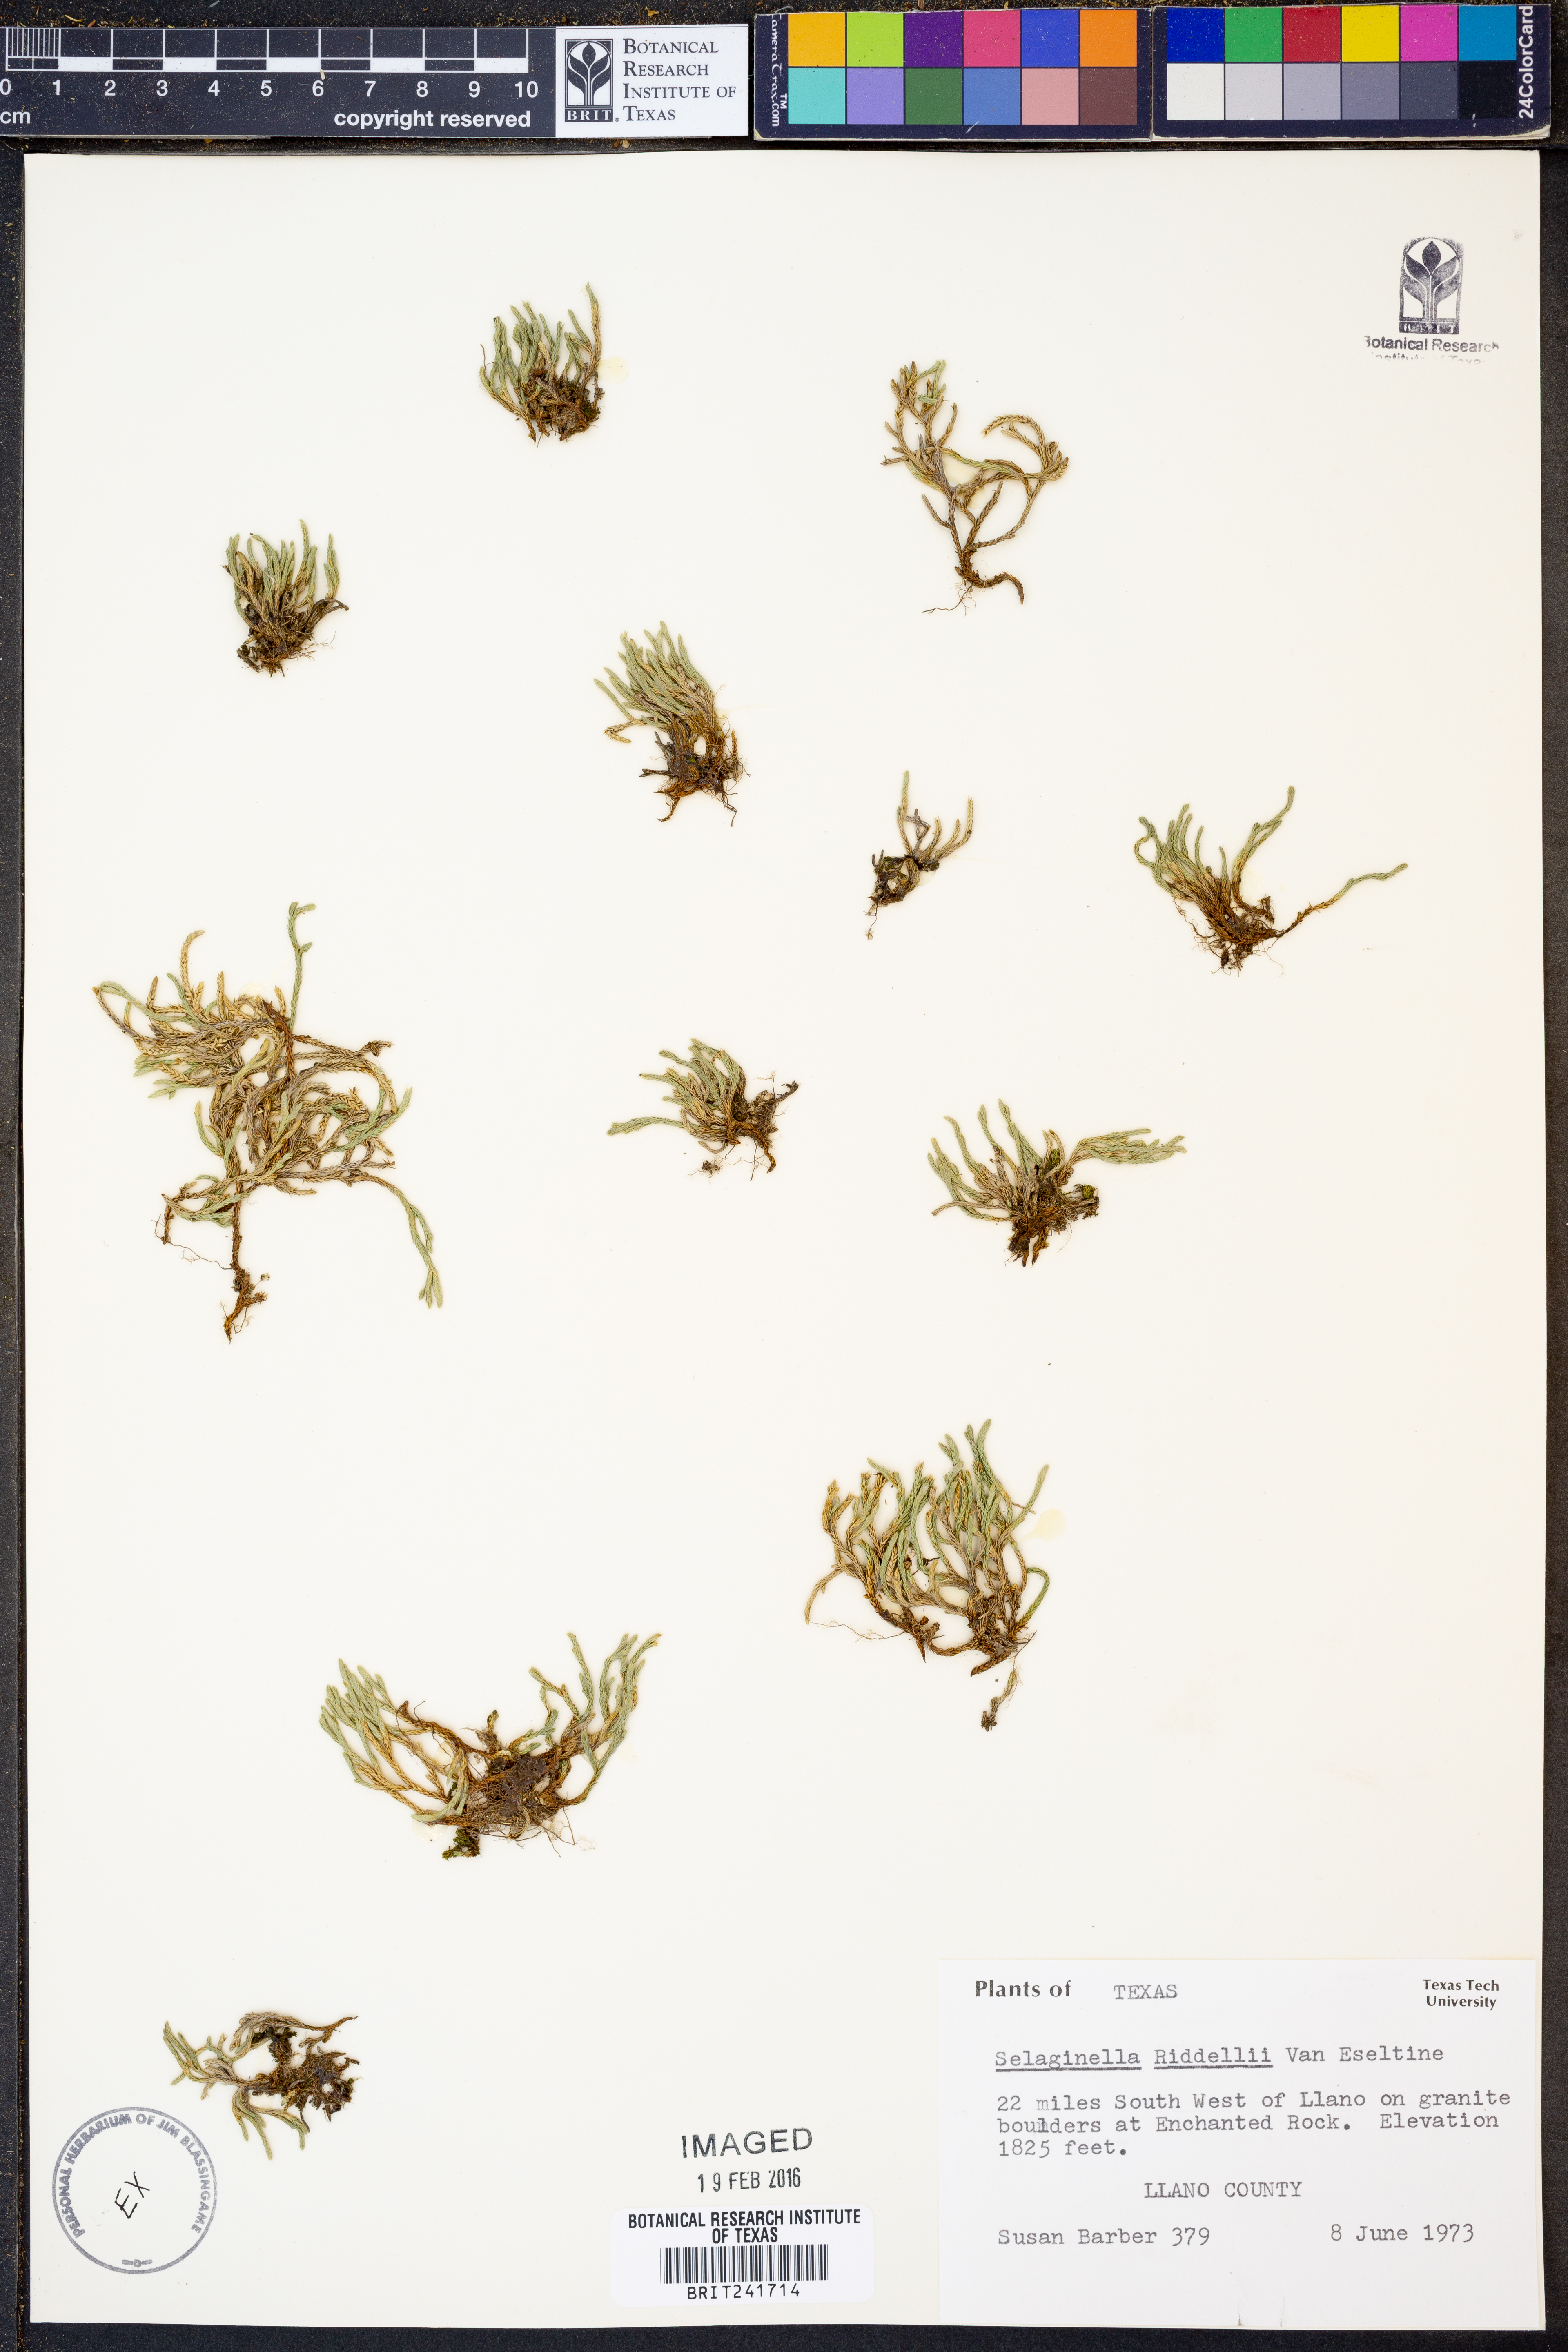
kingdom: Plantae
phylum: Tracheophyta
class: Lycopodiopsida
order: Selaginellales
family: Selaginellaceae
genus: Selaginella
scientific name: Selaginella corallina
